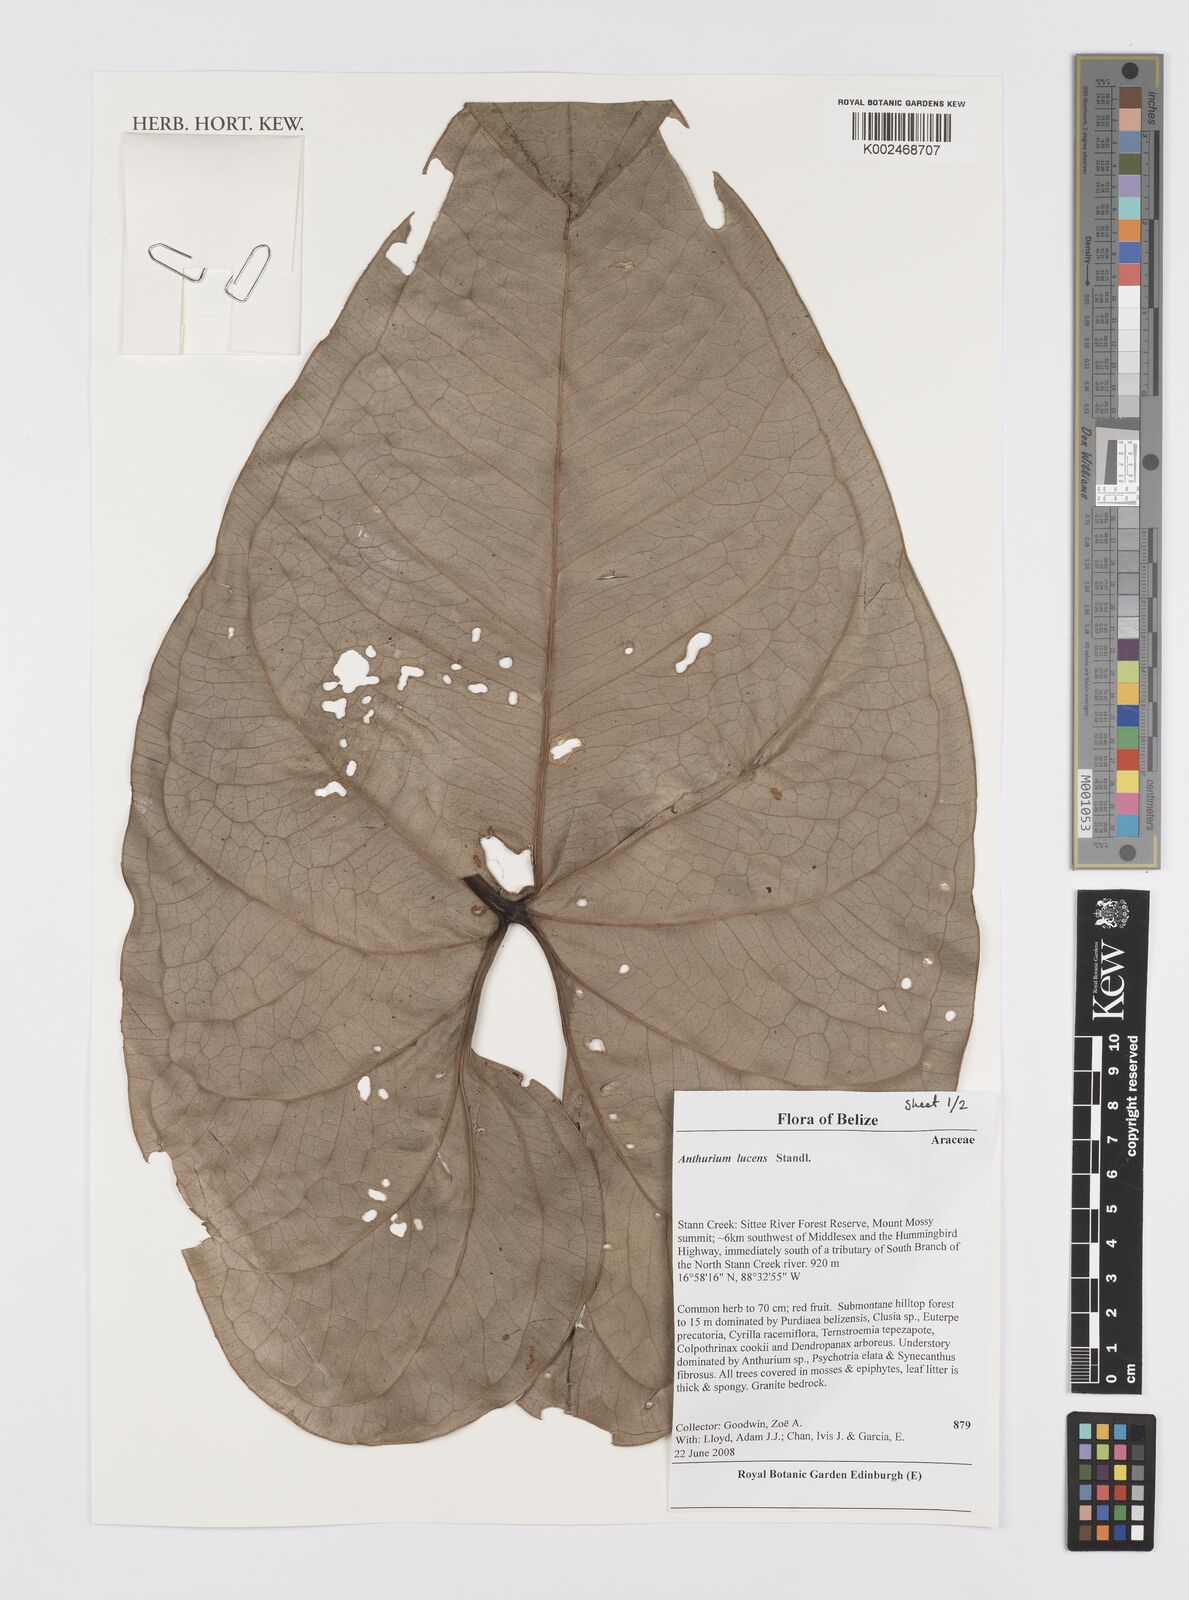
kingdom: Plantae
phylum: Tracheophyta
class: Liliopsida
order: Alismatales
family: Araceae
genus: Anthurium
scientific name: Anthurium lucens
